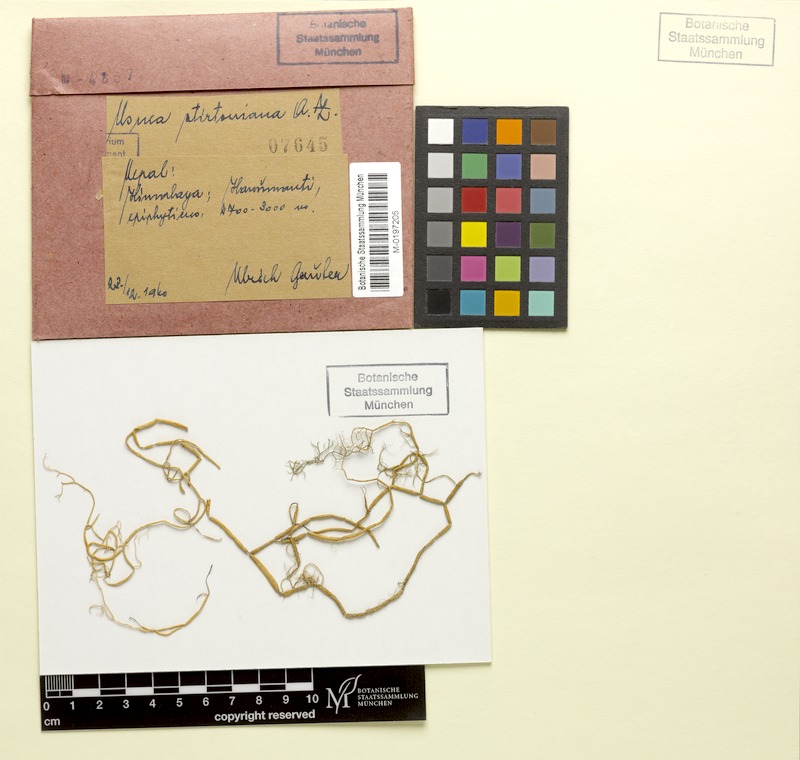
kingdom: Fungi
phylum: Ascomycota
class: Lecanoromycetes
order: Lecanorales
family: Parmeliaceae
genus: Usnea
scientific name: Usnea
